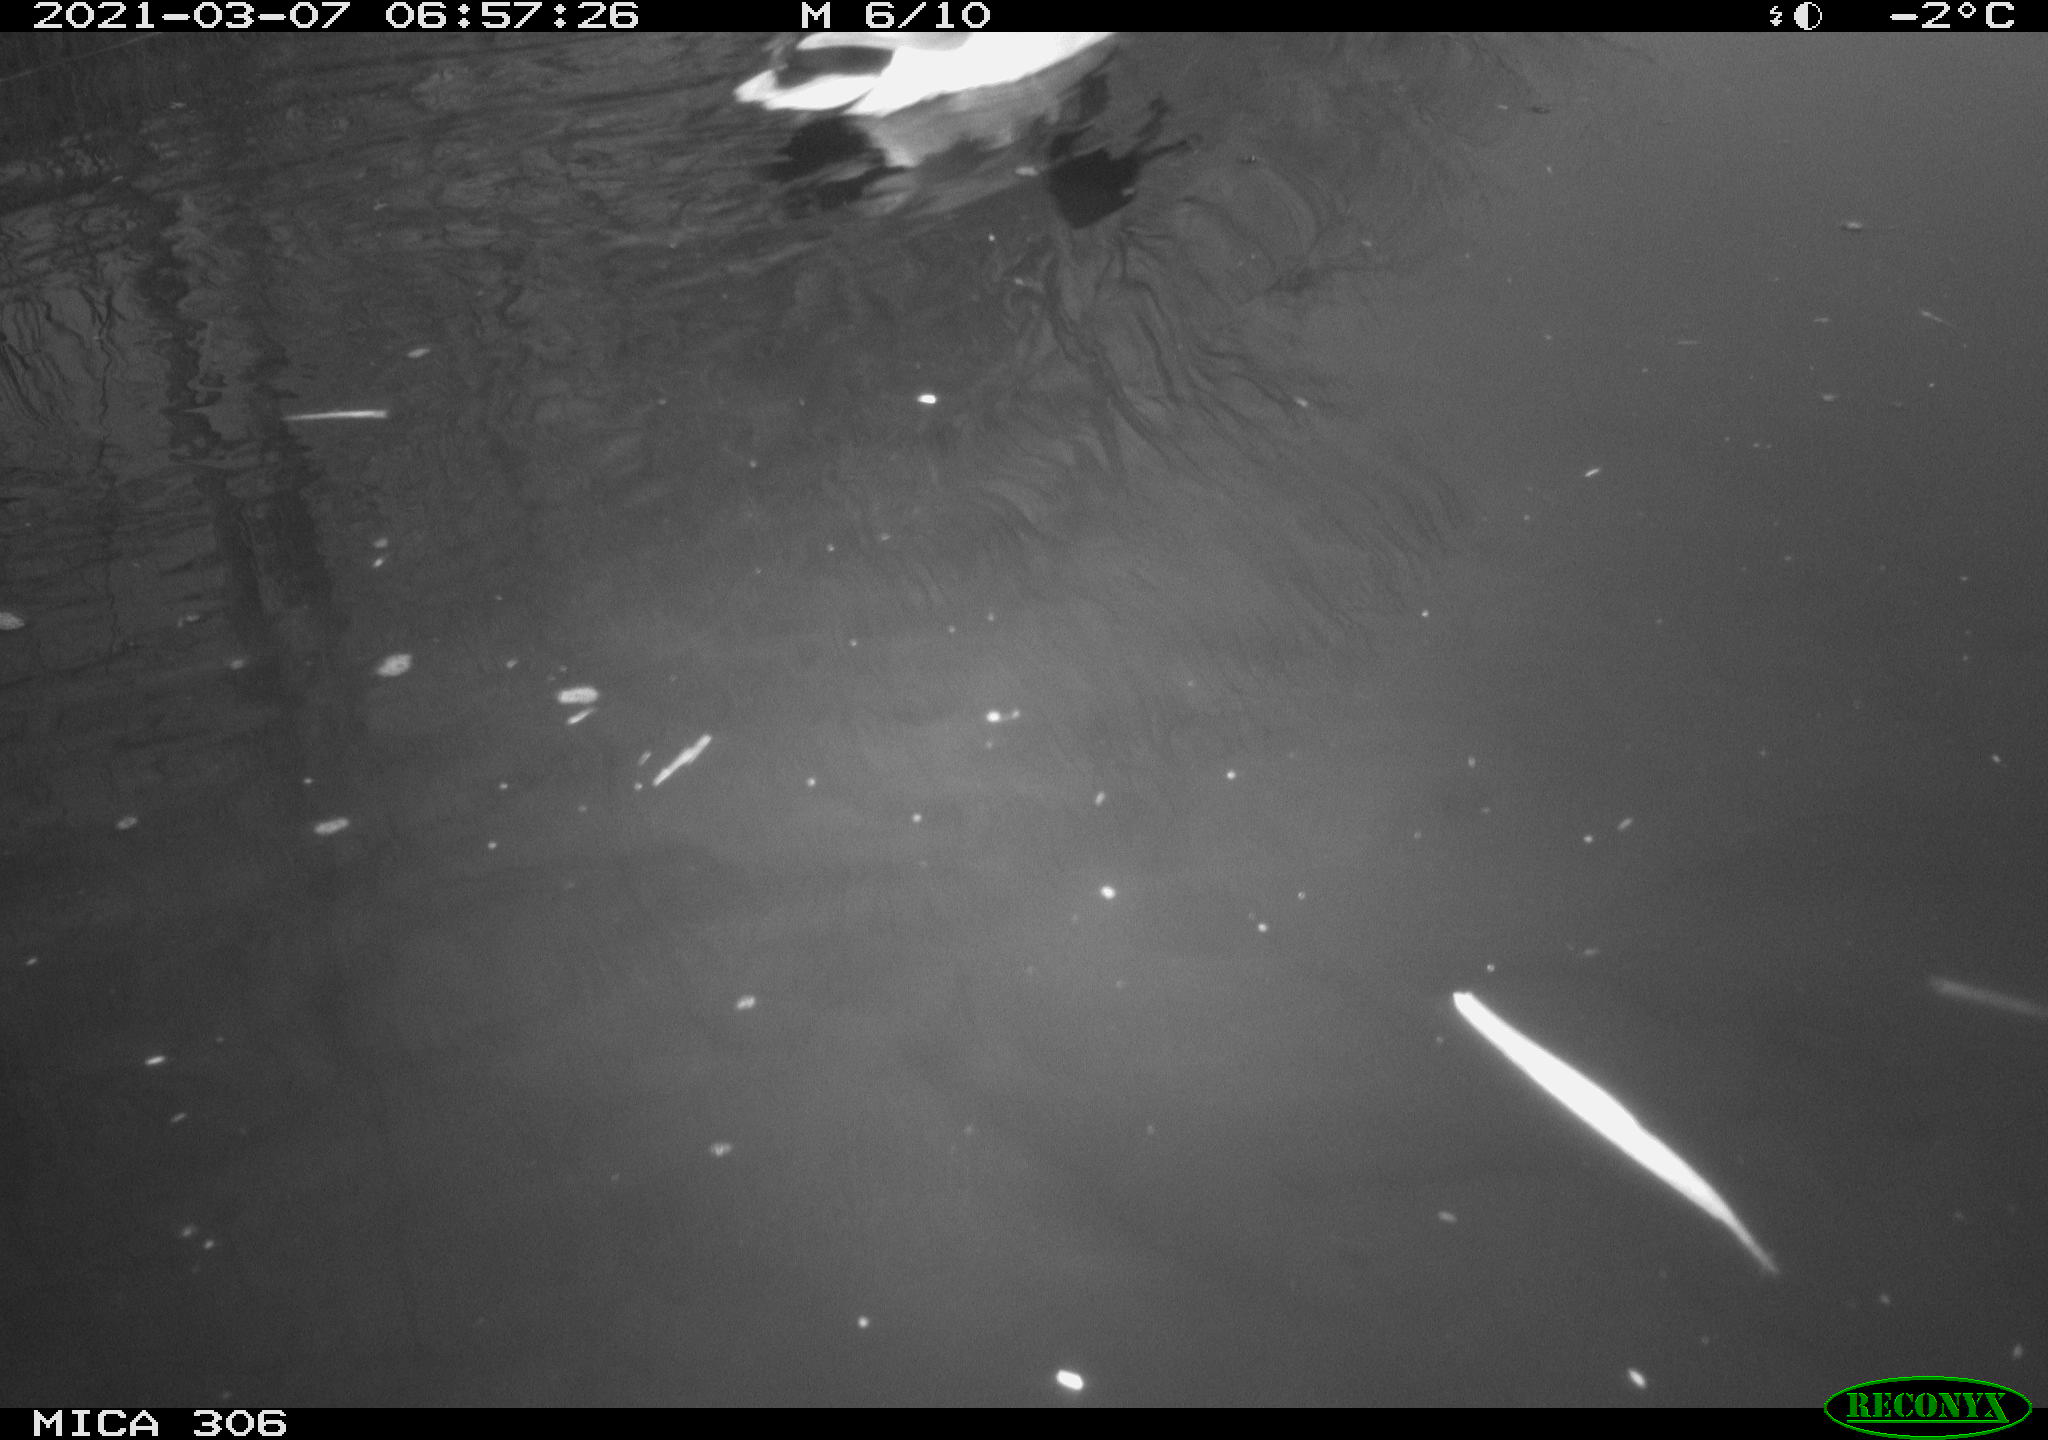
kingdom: Animalia
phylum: Chordata
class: Aves
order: Anseriformes
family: Anatidae
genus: Anas
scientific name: Anas platyrhynchos
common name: Mallard
